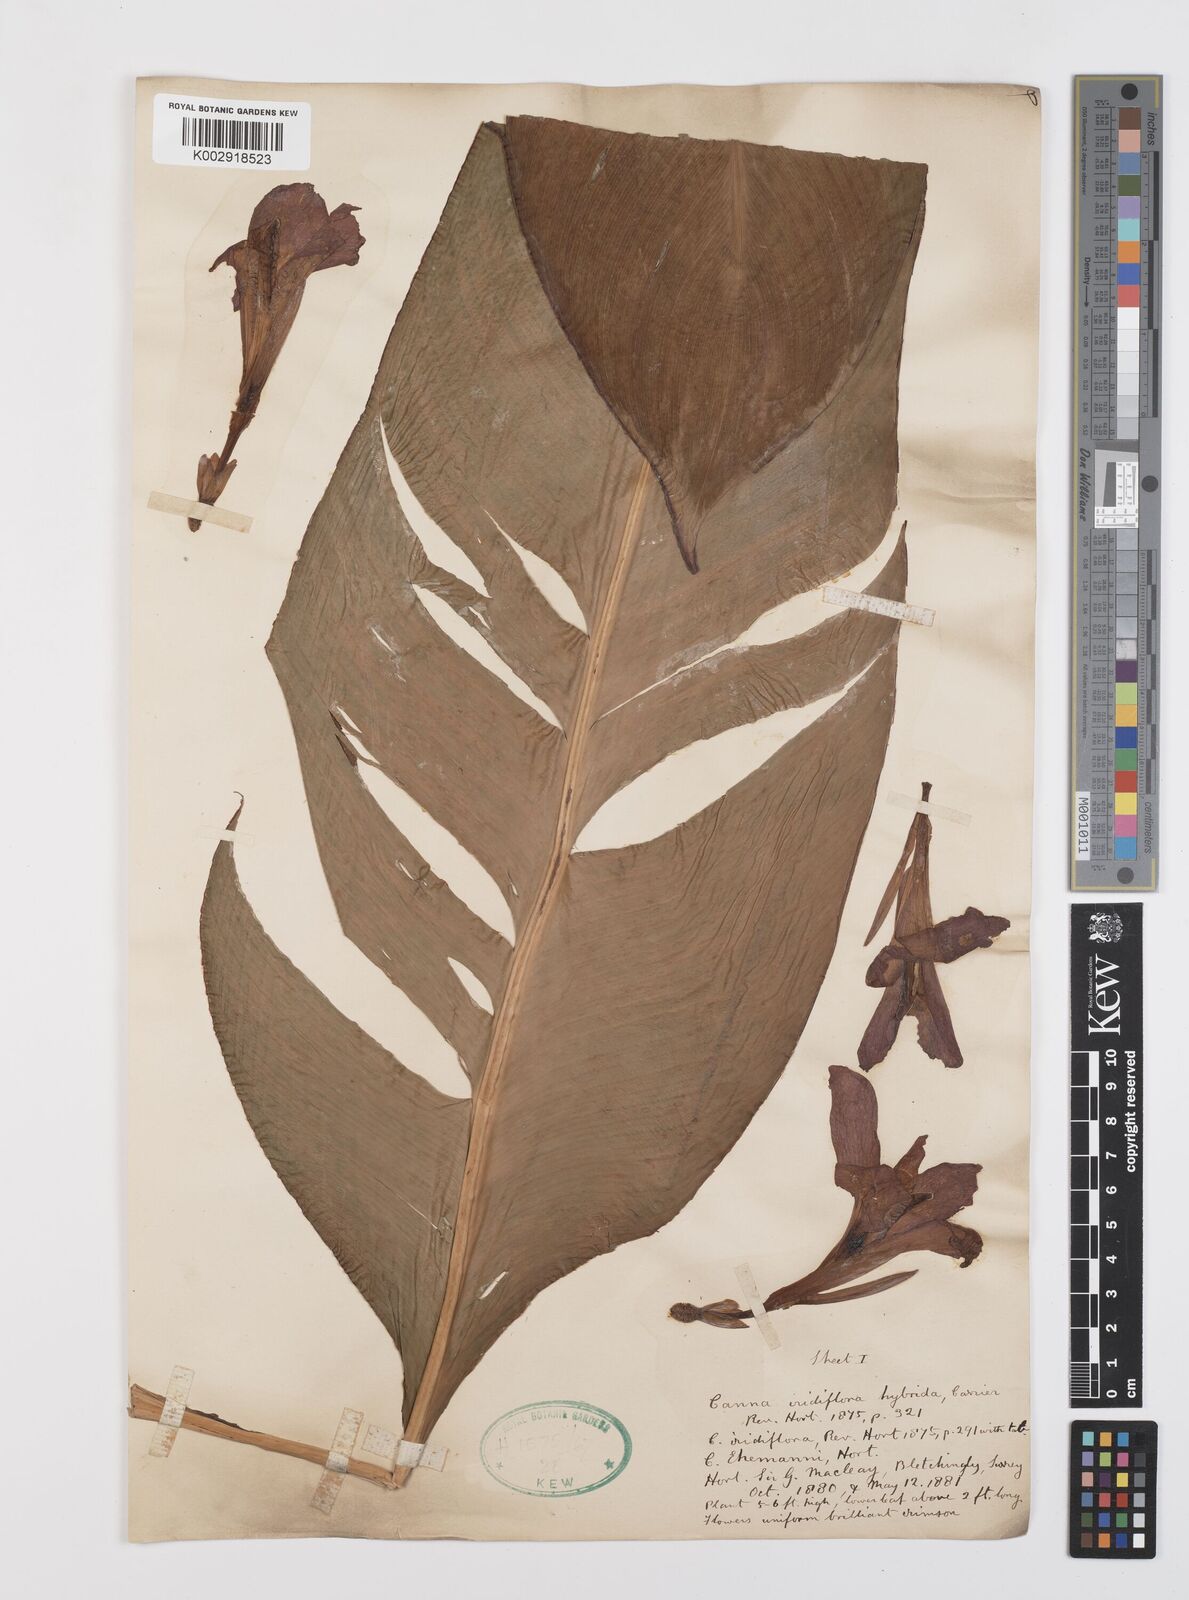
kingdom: Plantae
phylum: Tracheophyta
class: Liliopsida
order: Zingiberales
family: Cannaceae
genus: Canna
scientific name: Canna iridiflora
